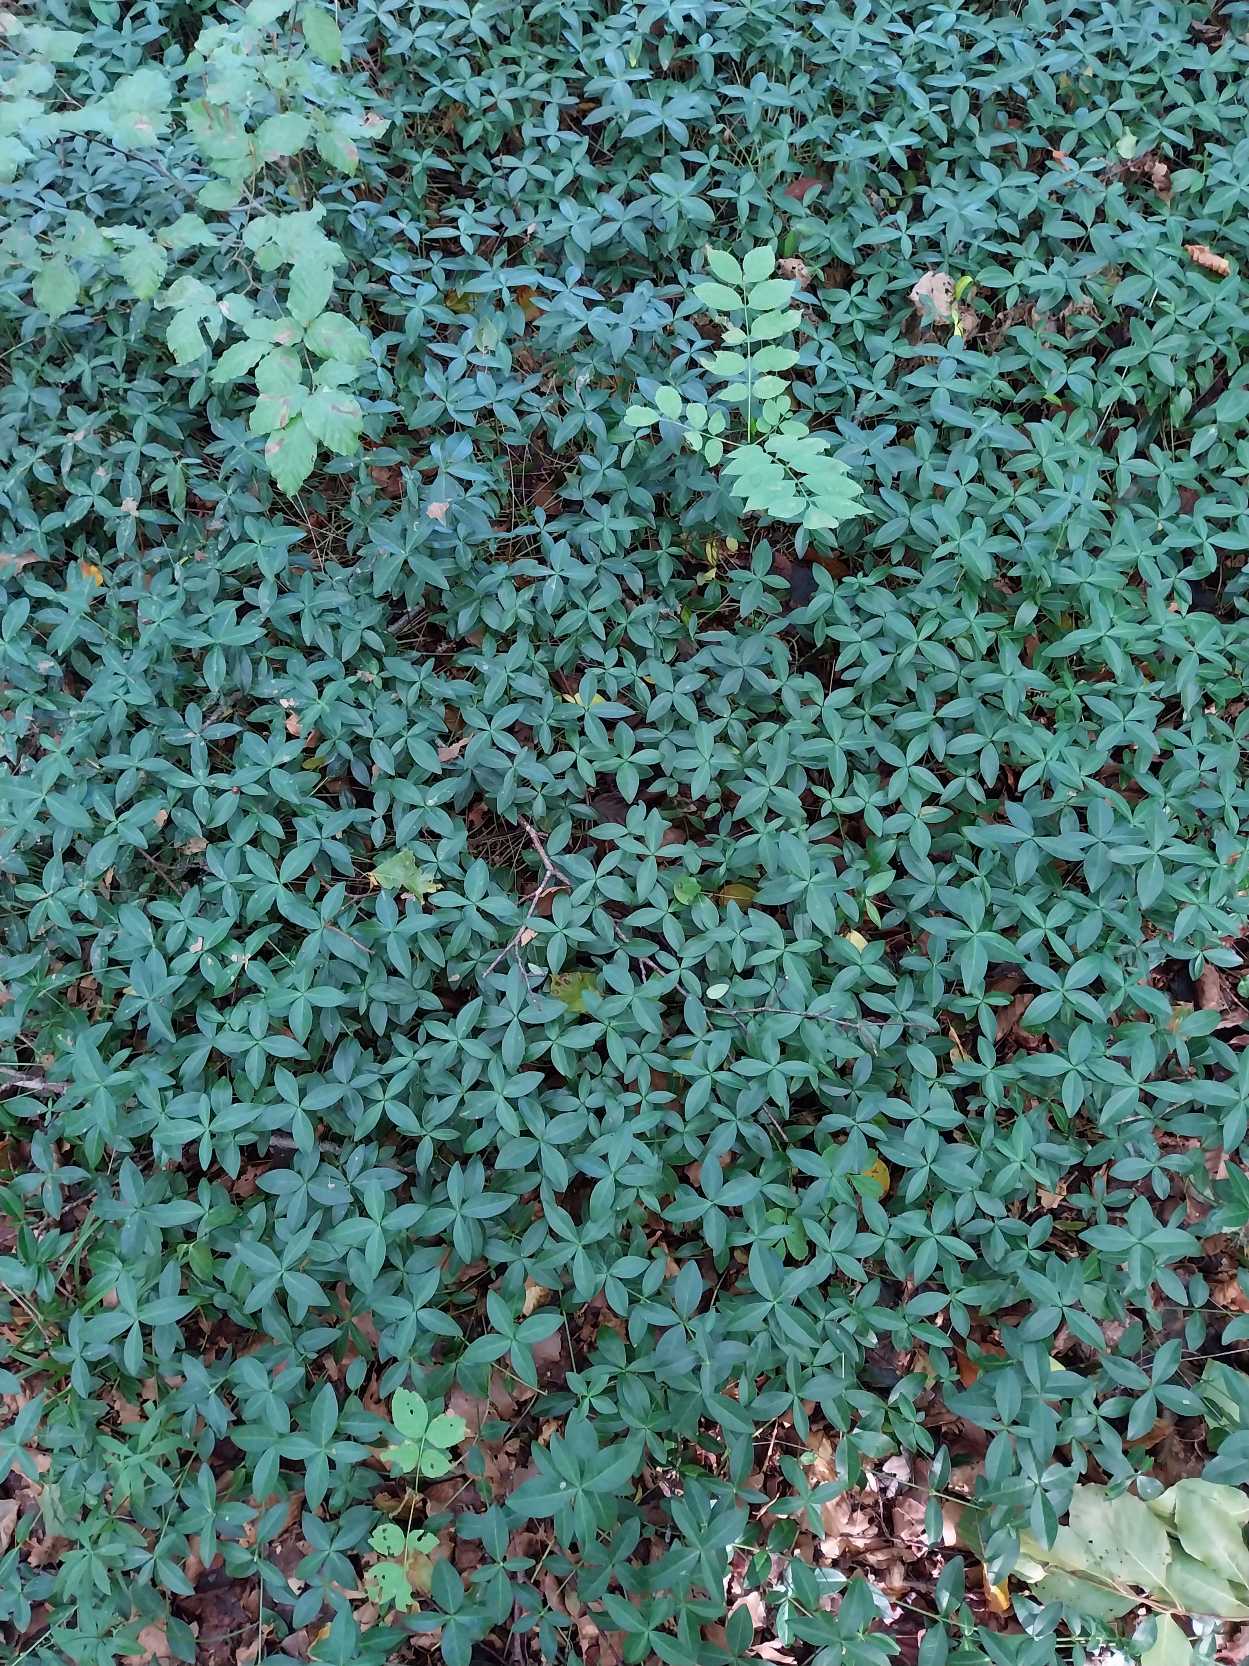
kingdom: Plantae
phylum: Tracheophyta
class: Magnoliopsida
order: Gentianales
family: Apocynaceae
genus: Vinca
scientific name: Vinca minor
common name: Liden singrøn
